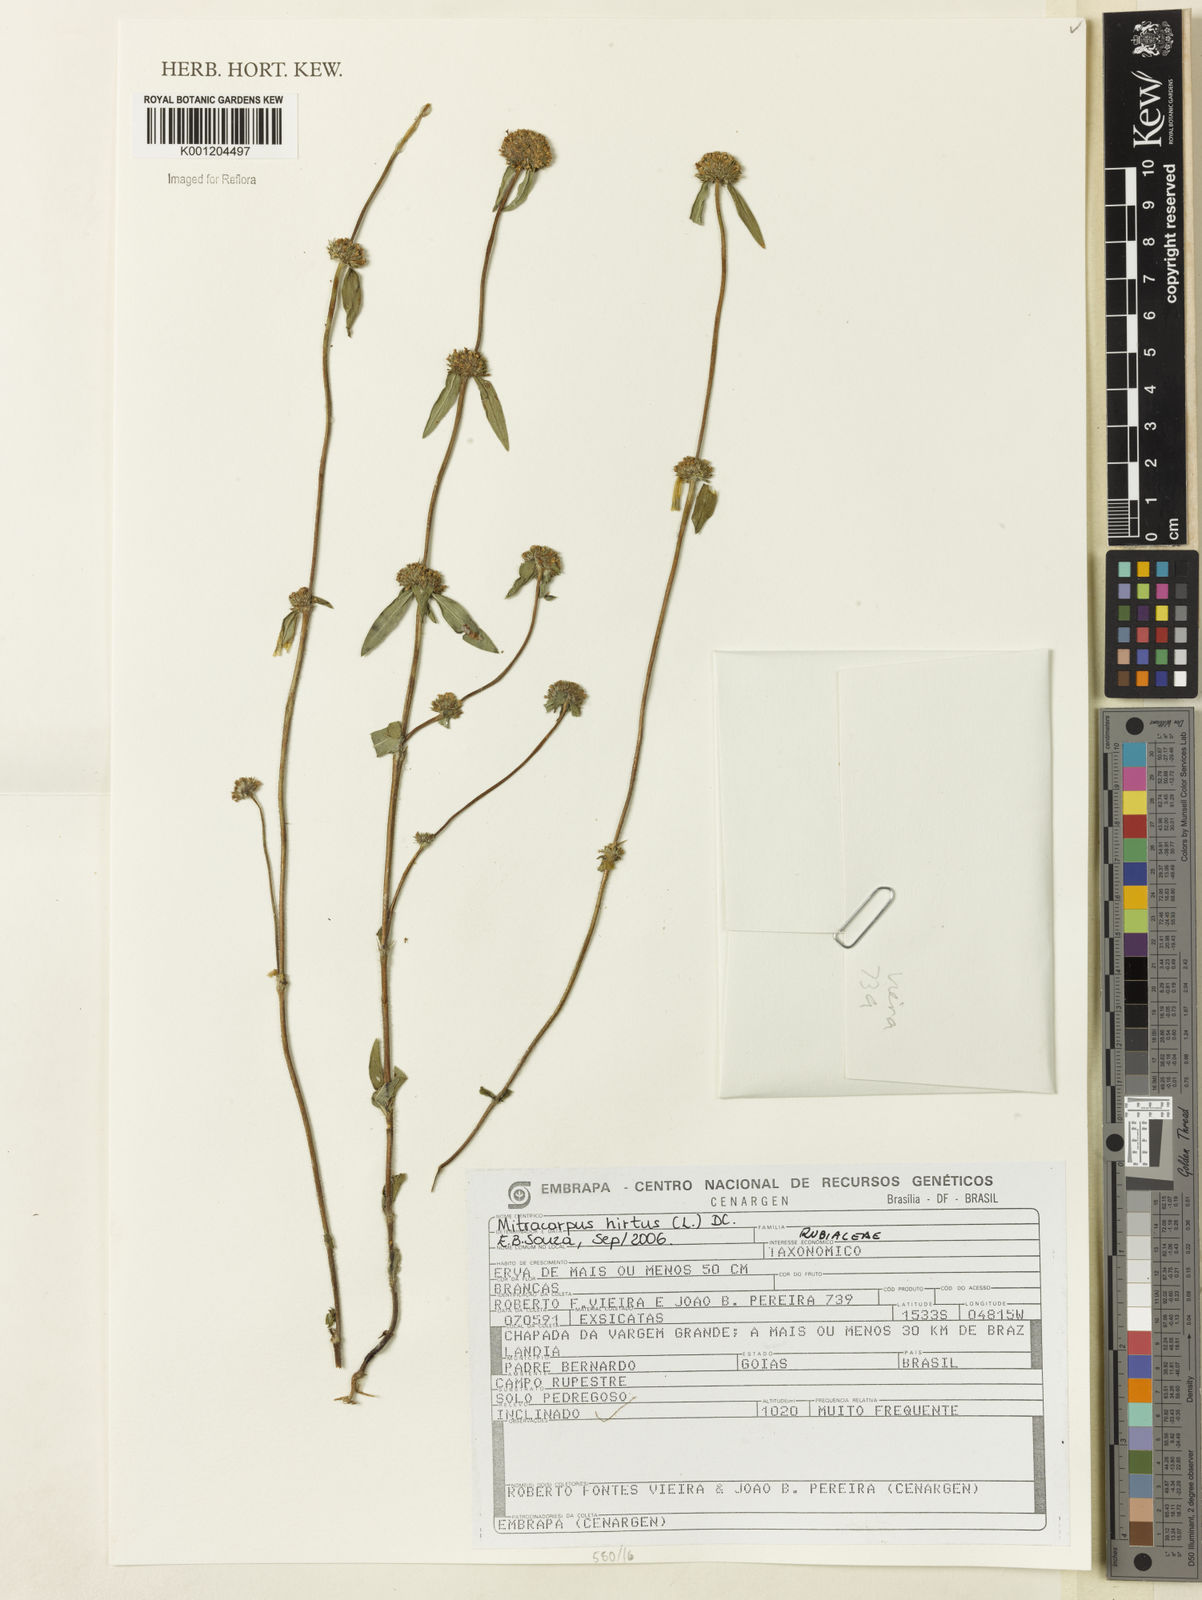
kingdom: Plantae
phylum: Tracheophyta
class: Magnoliopsida
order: Gentianales
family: Rubiaceae
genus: Mitracarpus
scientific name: Mitracarpus hirtus
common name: Tropical girdlepod
